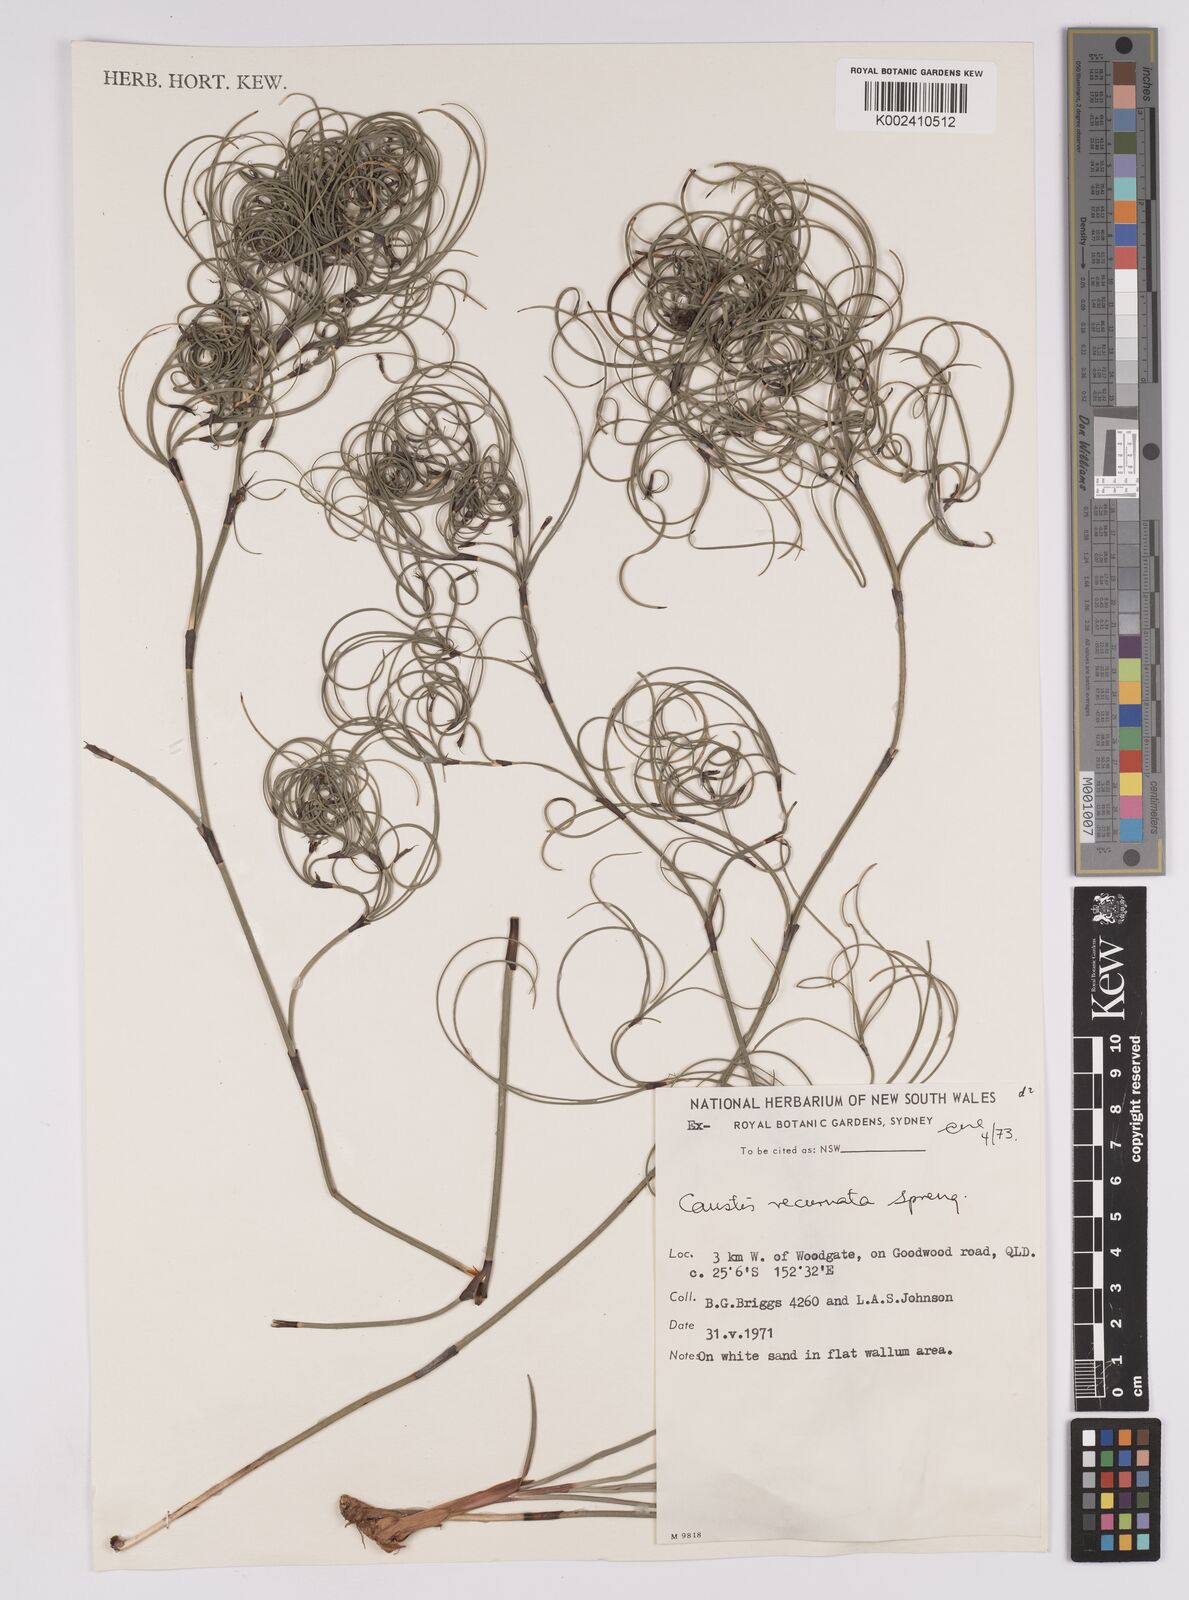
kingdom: Plantae
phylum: Tracheophyta
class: Liliopsida
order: Poales
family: Cyperaceae
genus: Caustis
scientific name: Caustis recurvata
